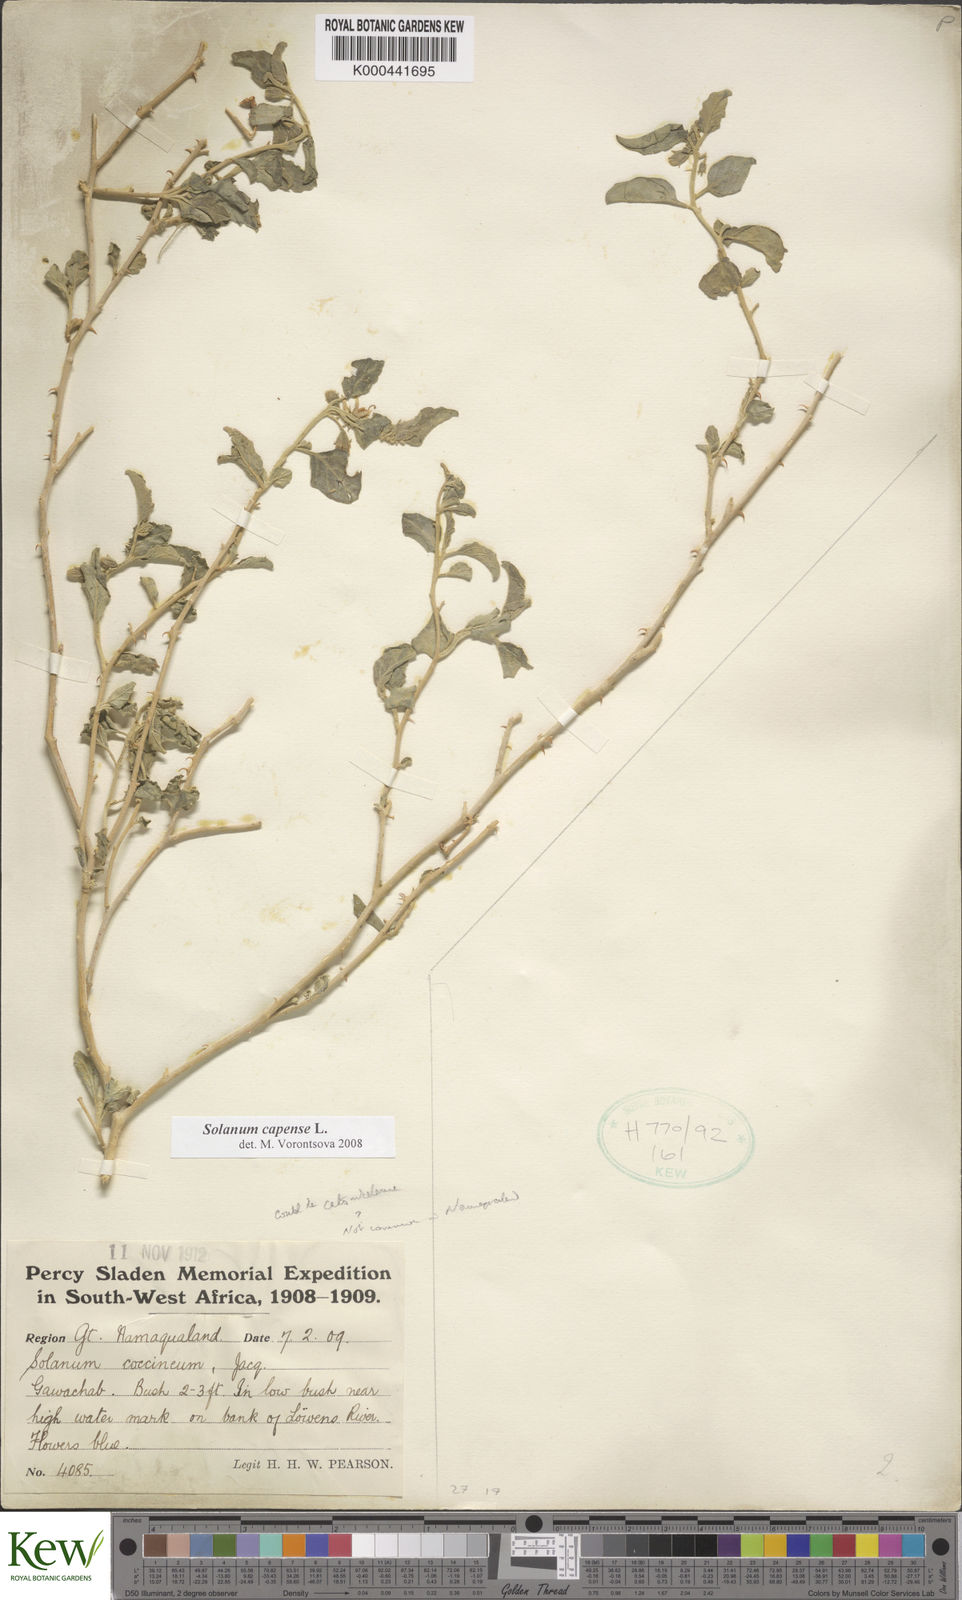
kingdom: Plantae
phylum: Tracheophyta
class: Magnoliopsida
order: Solanales
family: Solanaceae
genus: Solanum
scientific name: Solanum capense
